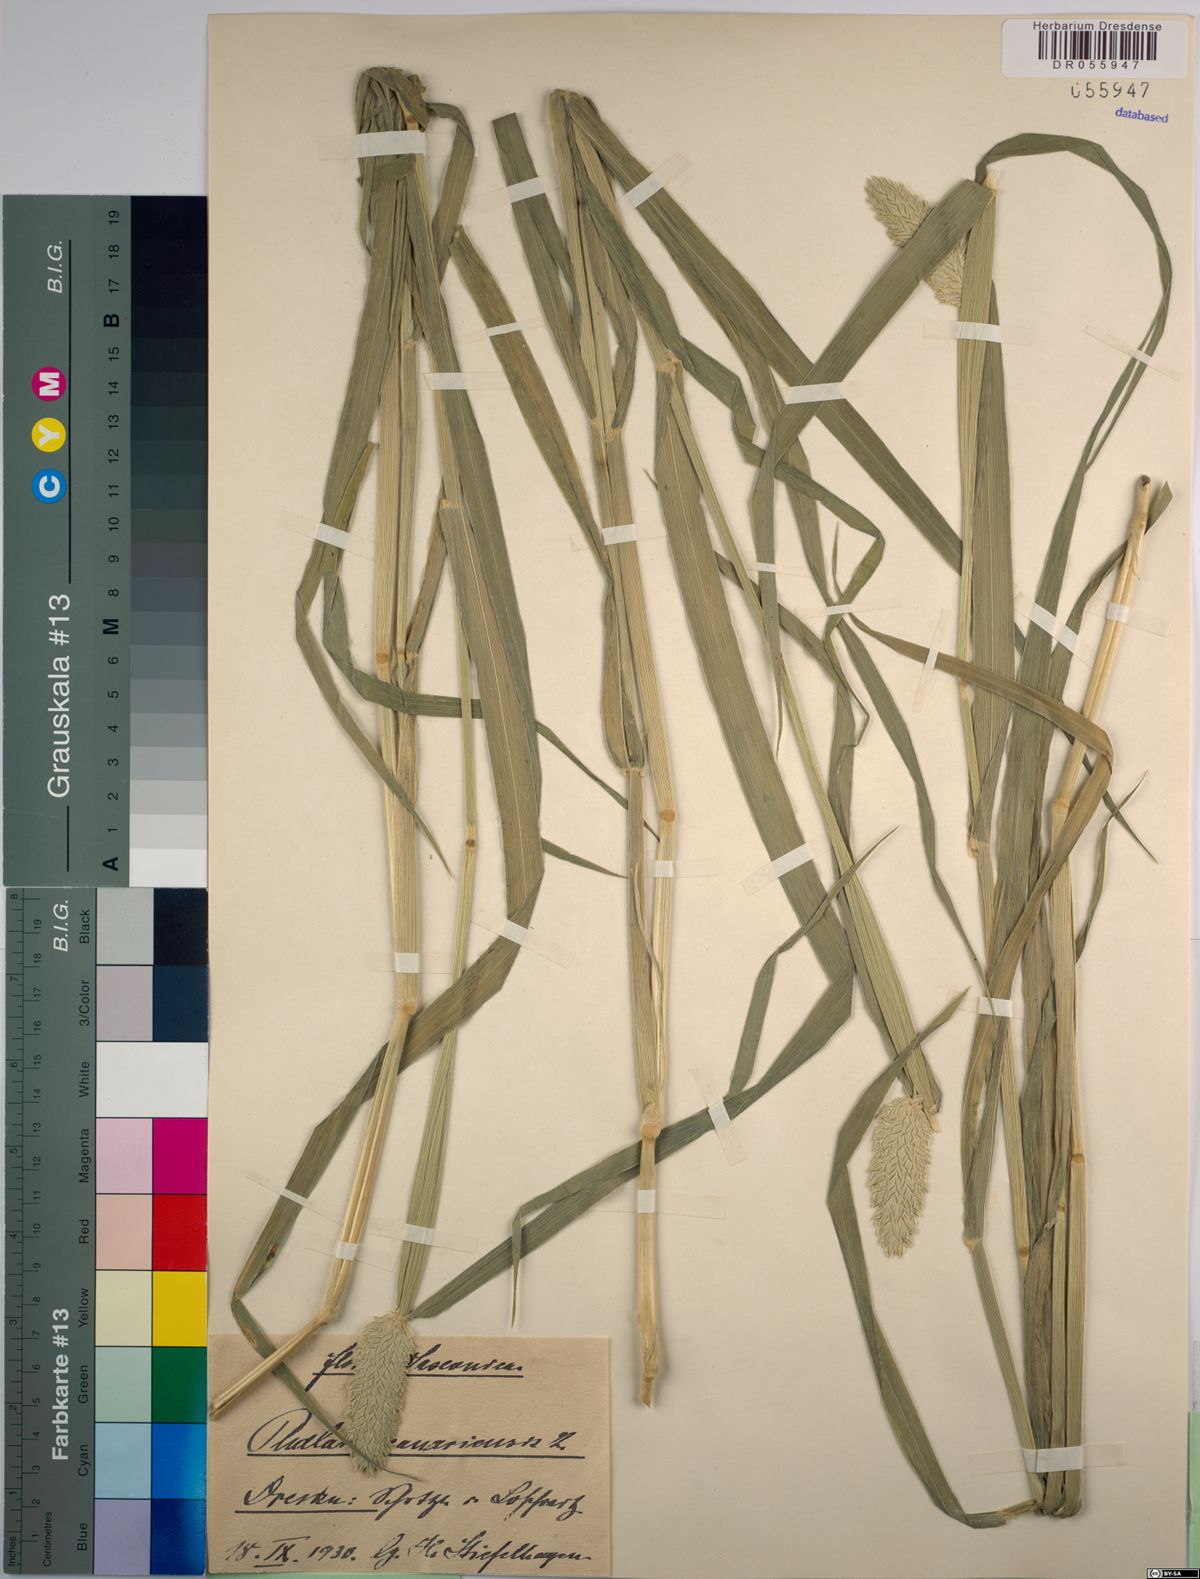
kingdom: Plantae
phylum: Tracheophyta
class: Liliopsida
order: Poales
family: Poaceae
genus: Phalaris
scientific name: Phalaris canariensis
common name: Annual canarygrass
